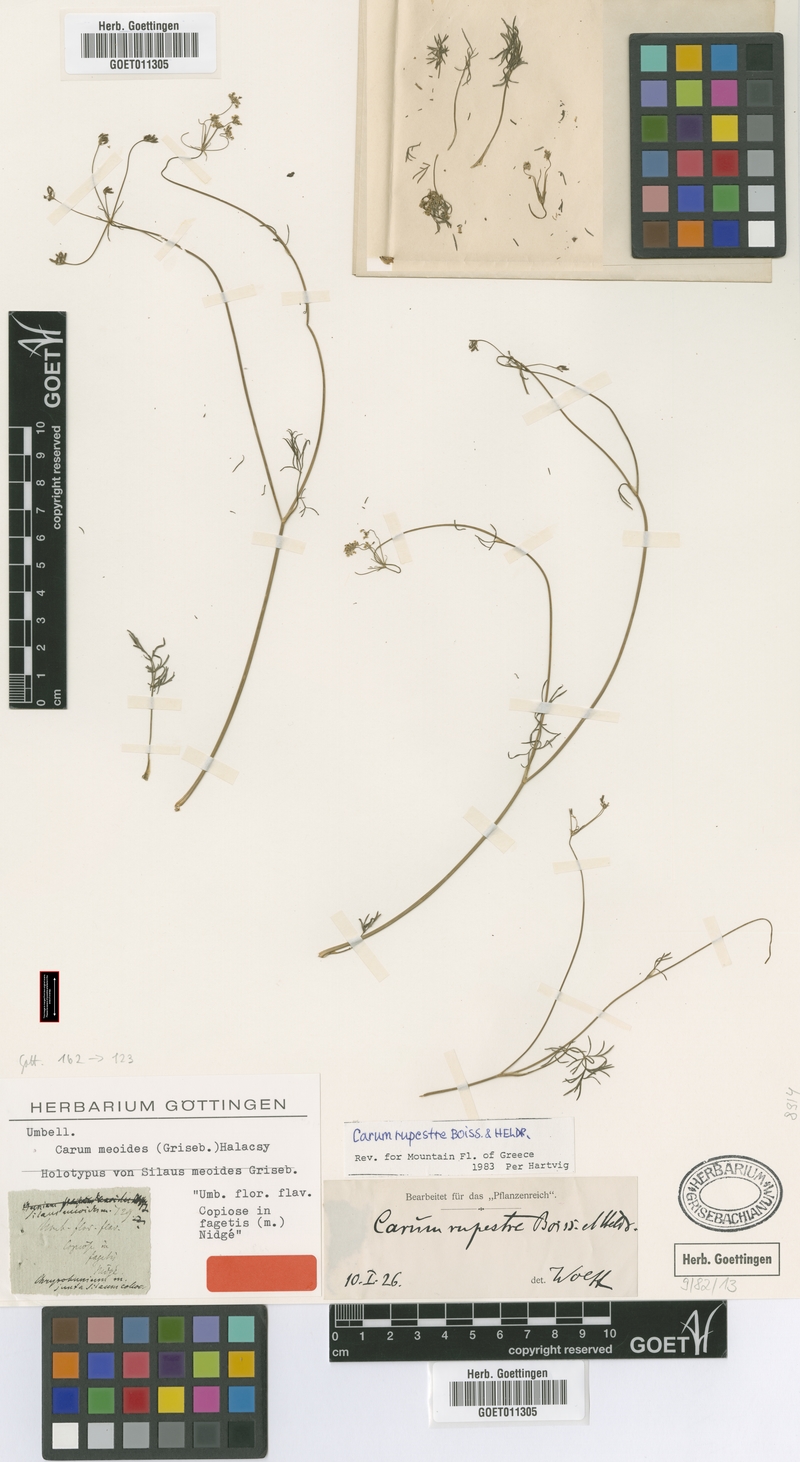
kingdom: Plantae
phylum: Tracheophyta
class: Magnoliopsida
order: Apiales
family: Apiaceae
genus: Carum
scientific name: Carum meoides
